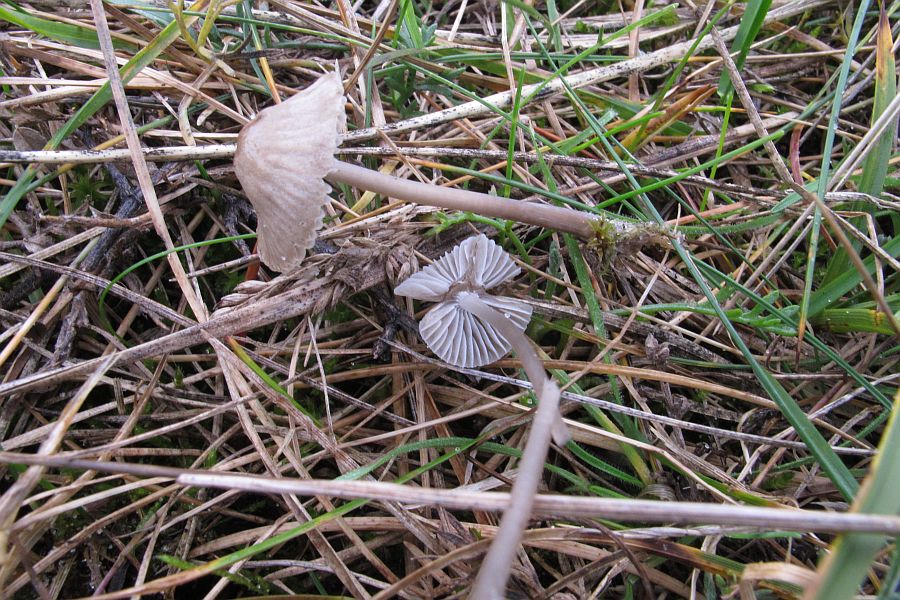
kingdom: Fungi
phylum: Basidiomycota
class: Agaricomycetes
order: Agaricales
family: Mycenaceae
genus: Mycena
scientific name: Mycena aetites
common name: plæne-huesvamp
